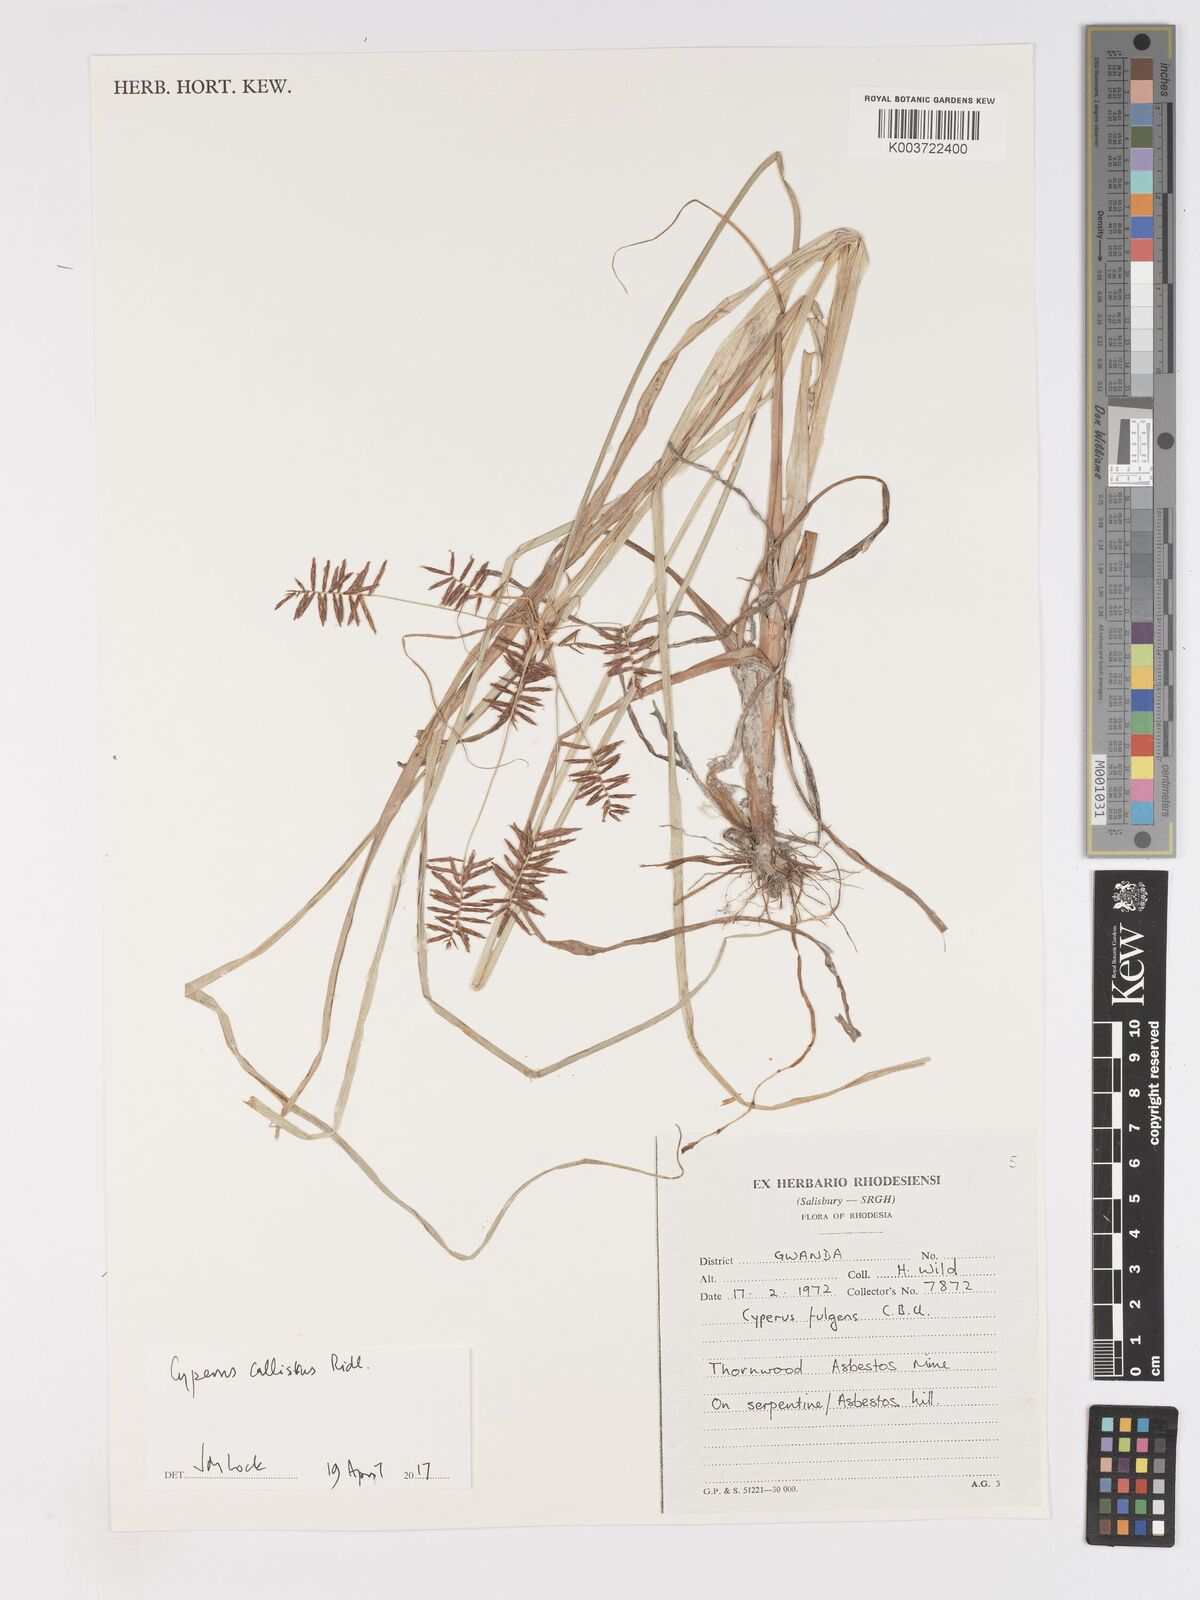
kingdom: Plantae
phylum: Tracheophyta
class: Liliopsida
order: Poales
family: Cyperaceae
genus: Cyperus
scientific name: Cyperus callistus
